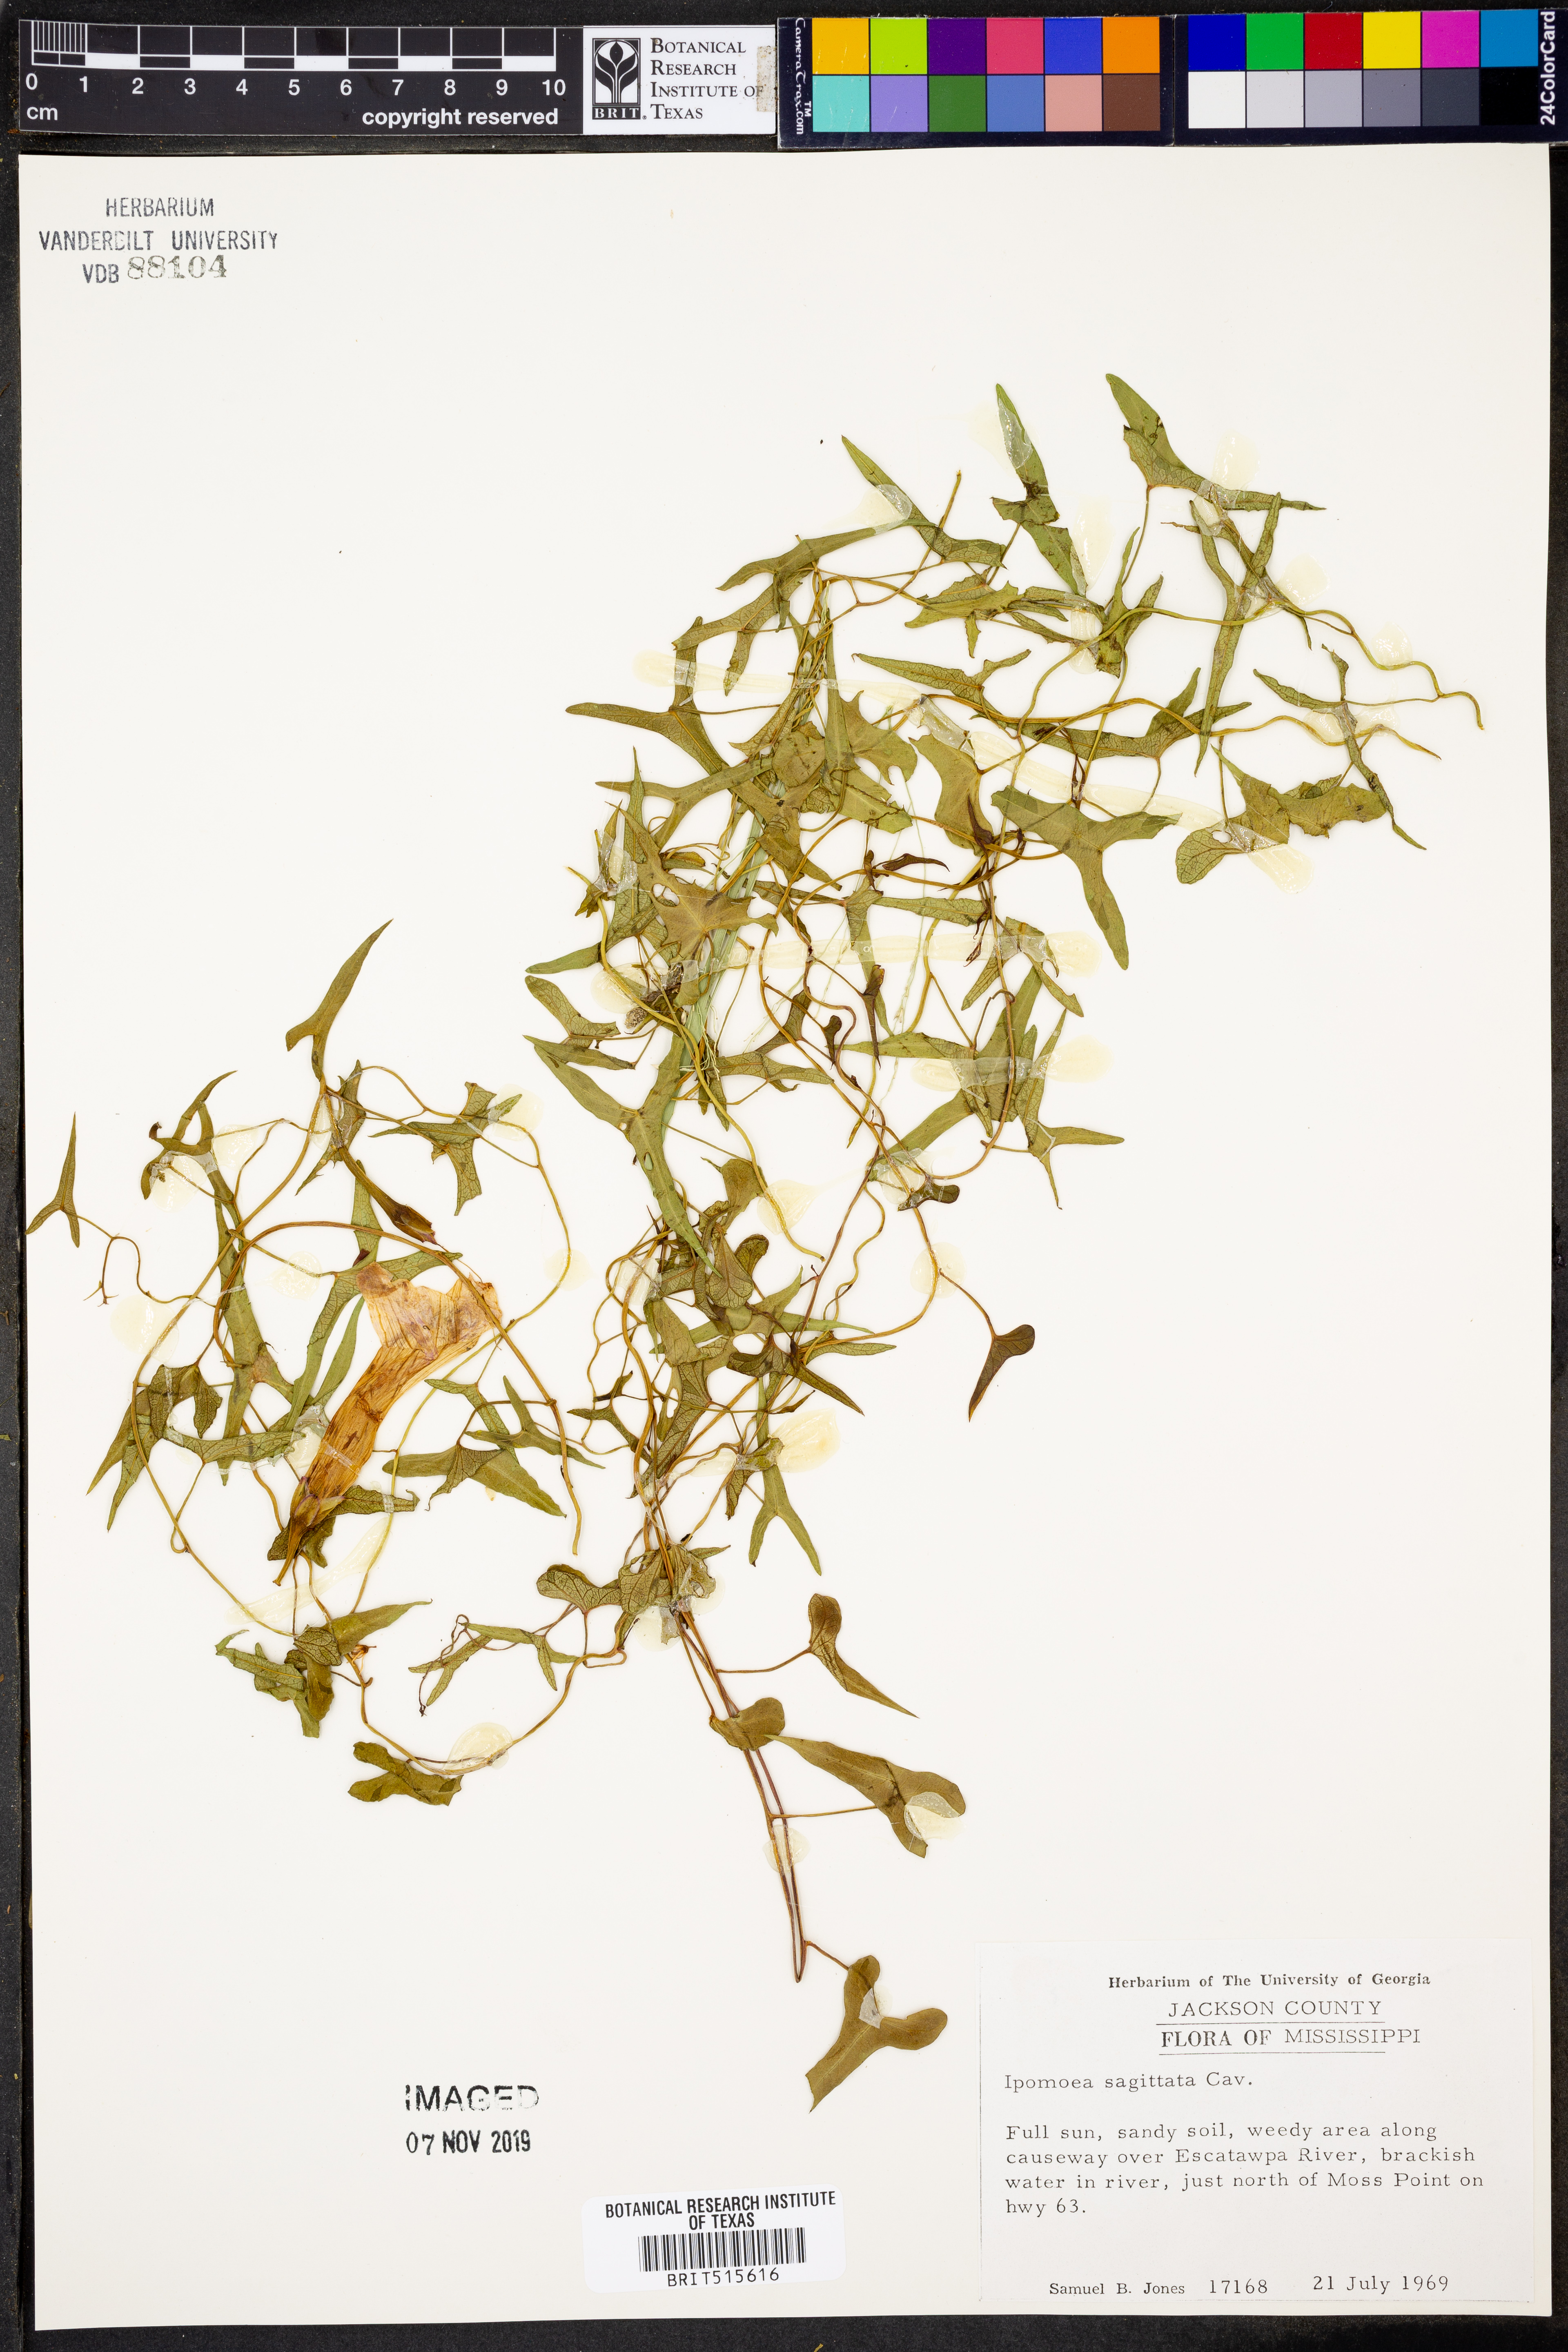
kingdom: Plantae
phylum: Tracheophyta
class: Magnoliopsida
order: Solanales
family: Convolvulaceae
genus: Ipomoea
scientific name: Ipomoea sinensis
